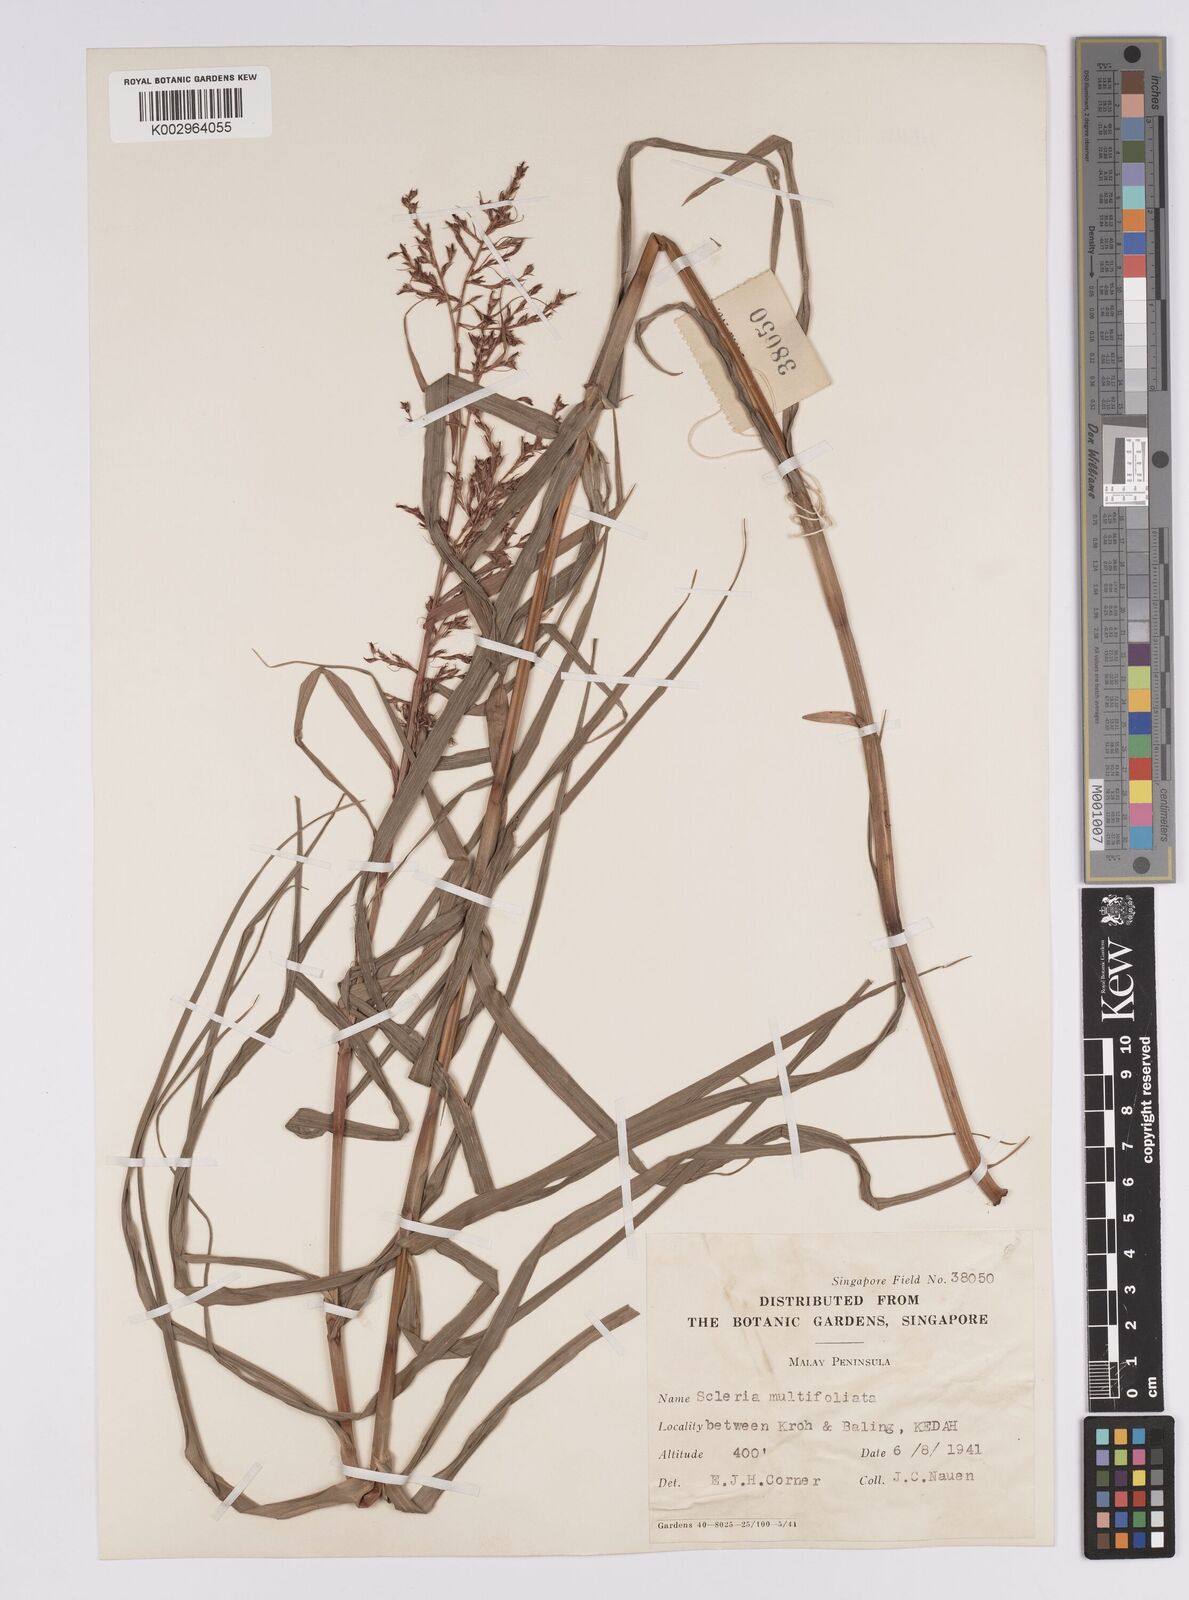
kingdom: Plantae
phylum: Tracheophyta
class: Liliopsida
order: Poales
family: Cyperaceae
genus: Scleria
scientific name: Scleria purpurascens
